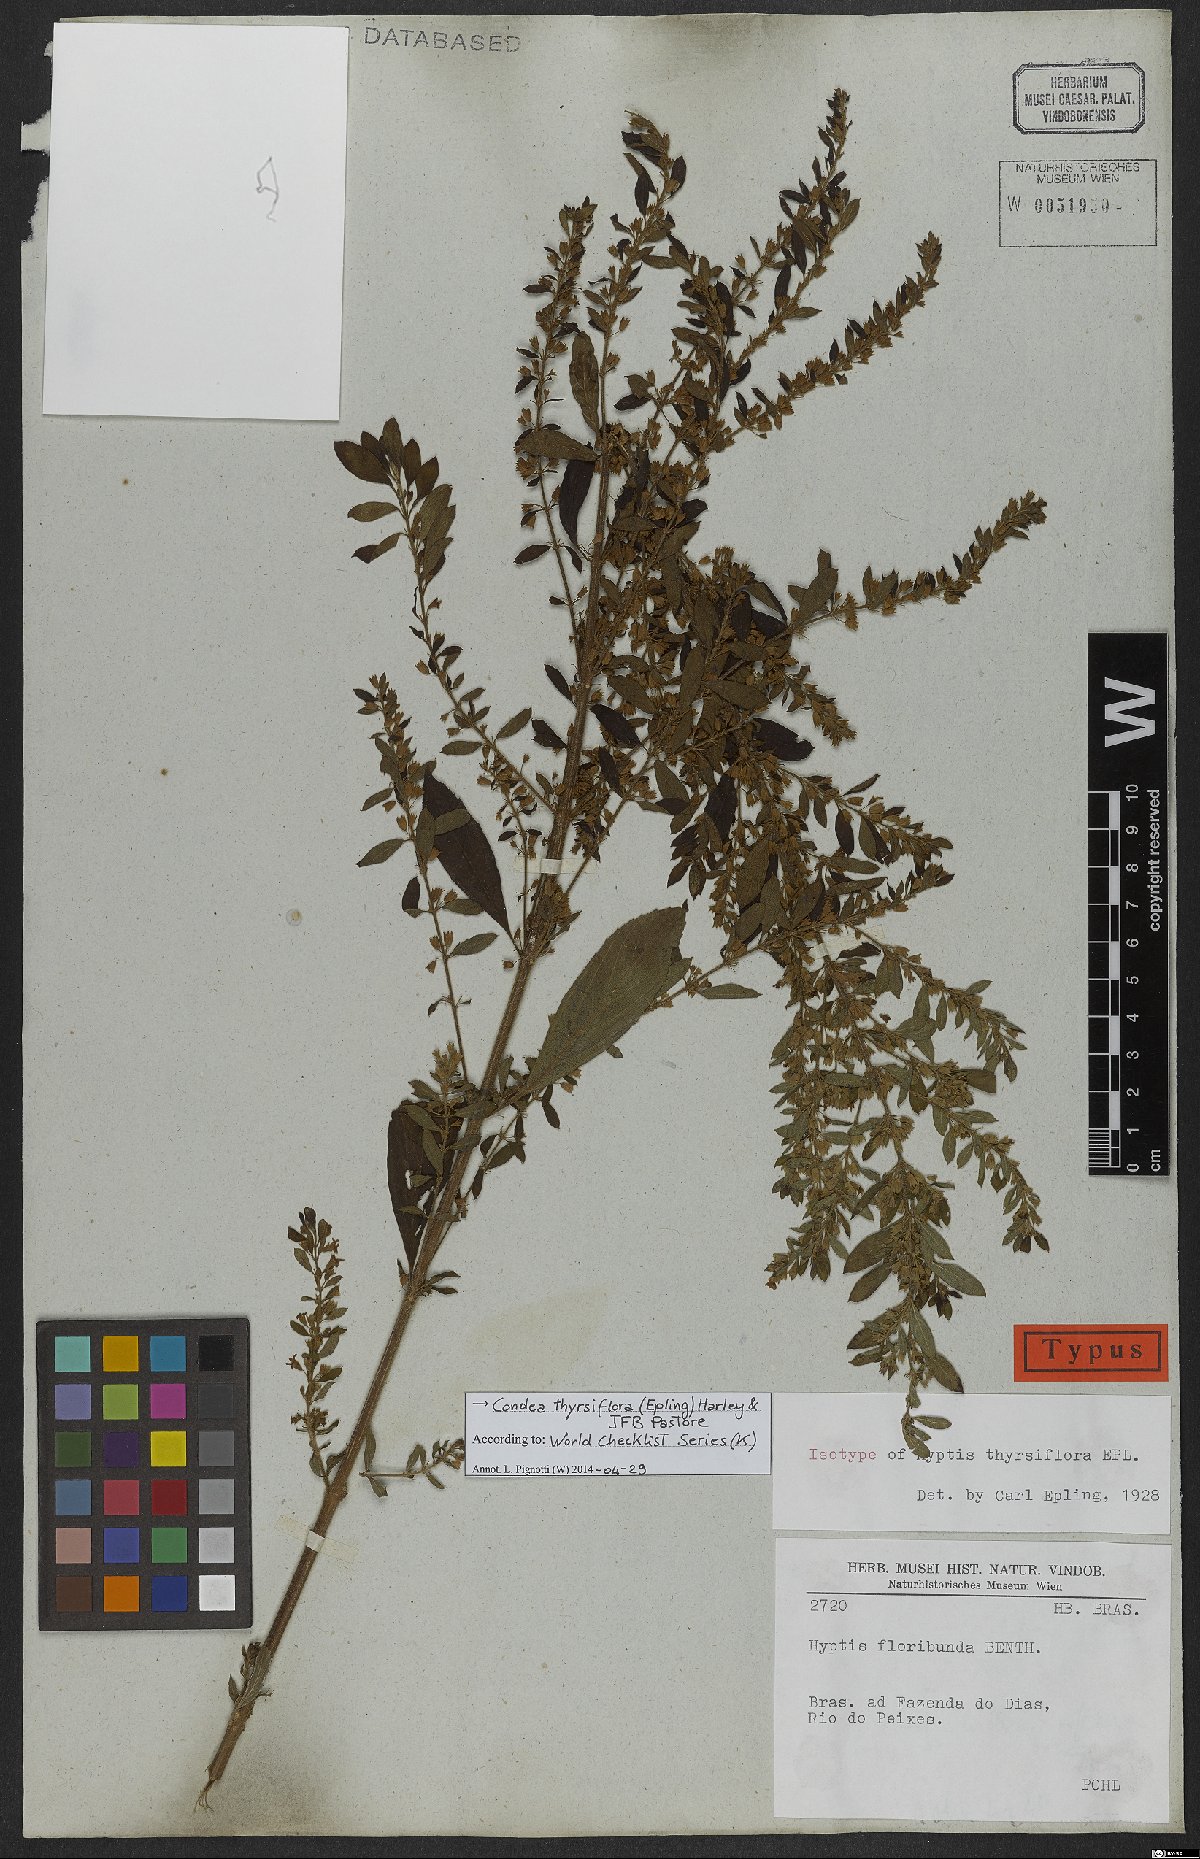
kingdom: Plantae
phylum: Tracheophyta
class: Magnoliopsida
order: Lamiales
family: Lamiaceae
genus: Condea
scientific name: Condea thyrsiflora
